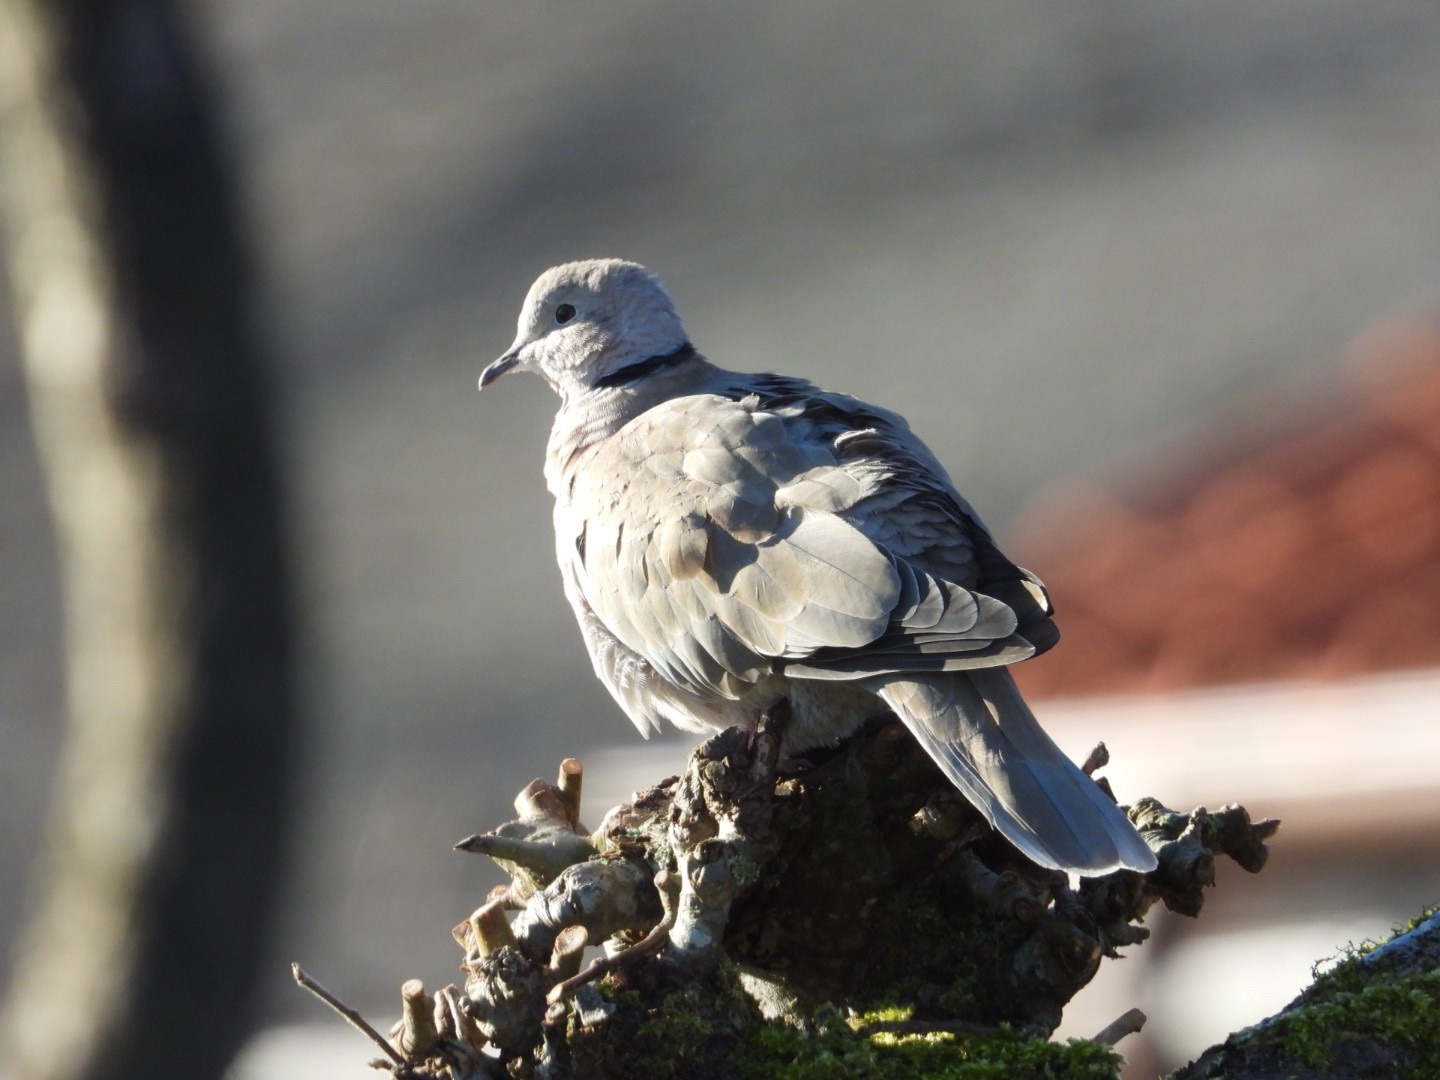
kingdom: Animalia
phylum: Chordata
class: Aves
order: Columbiformes
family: Columbidae
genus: Streptopelia
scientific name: Streptopelia decaocto
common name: Tyrkerdue
